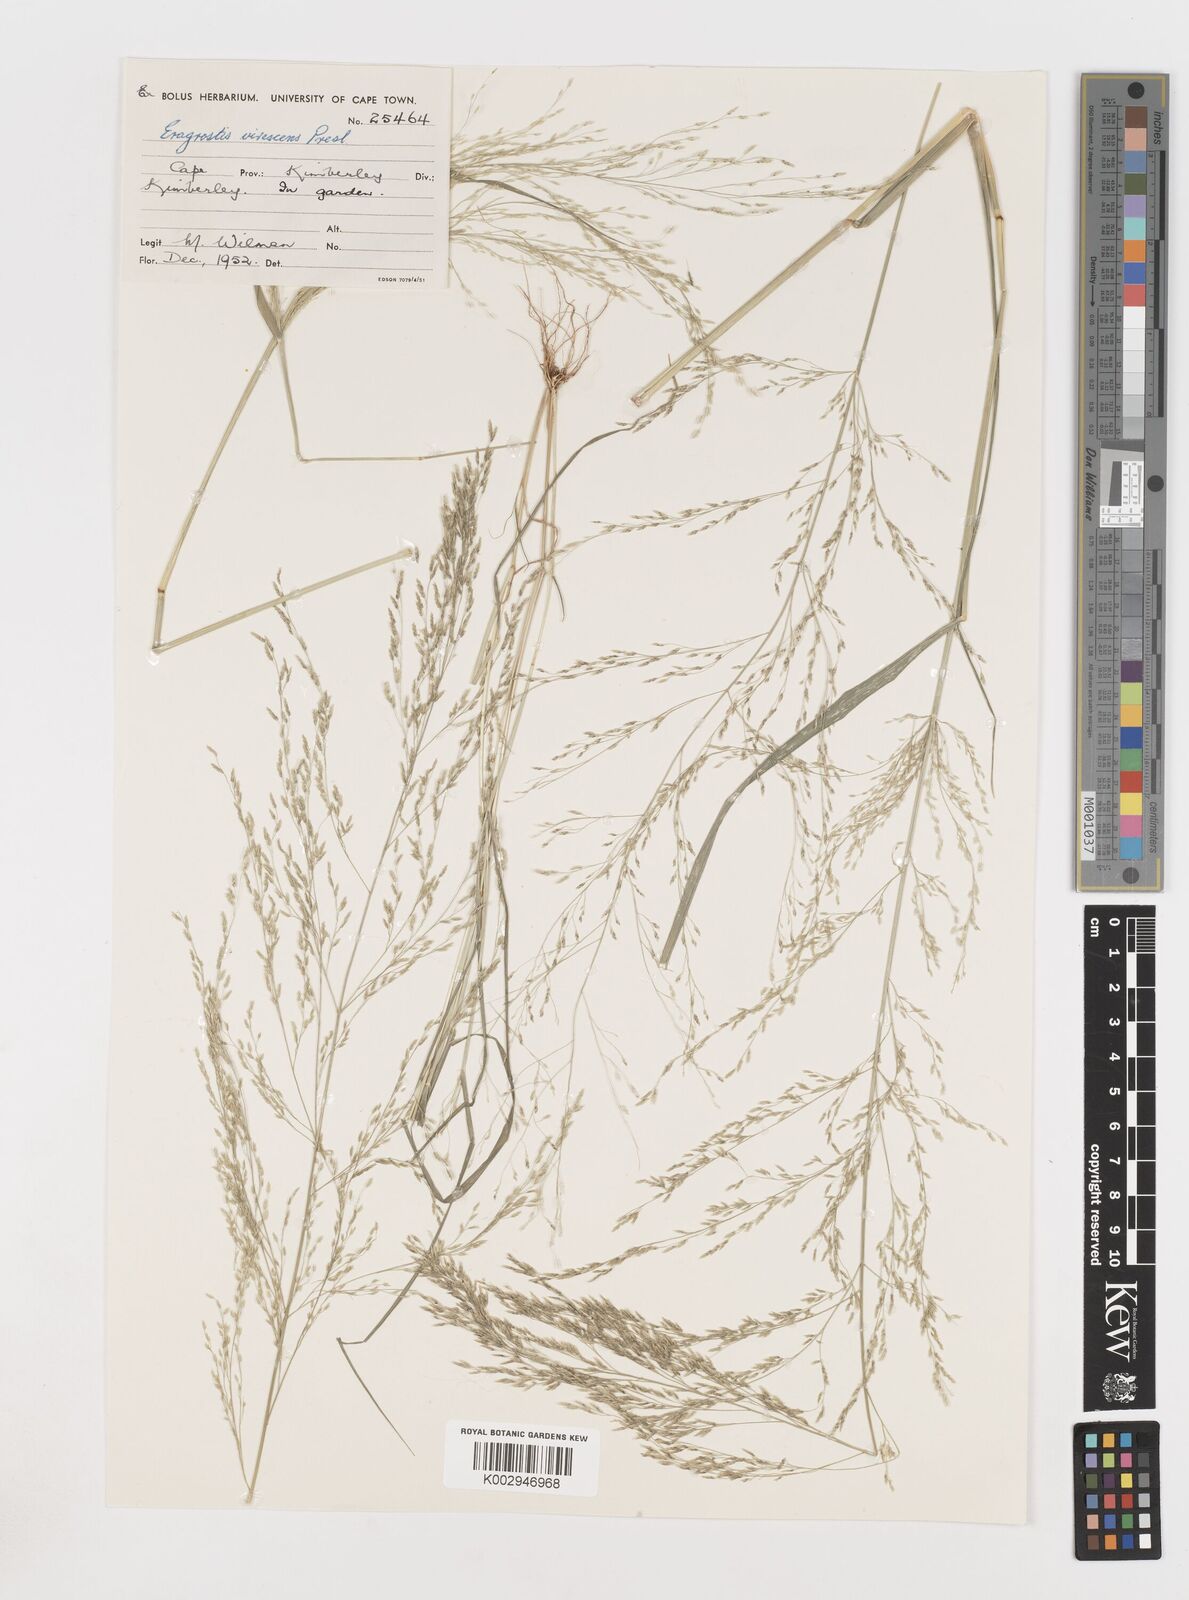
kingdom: Plantae
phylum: Tracheophyta
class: Liliopsida
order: Poales
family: Poaceae
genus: Eragrostis
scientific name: Eragrostis
